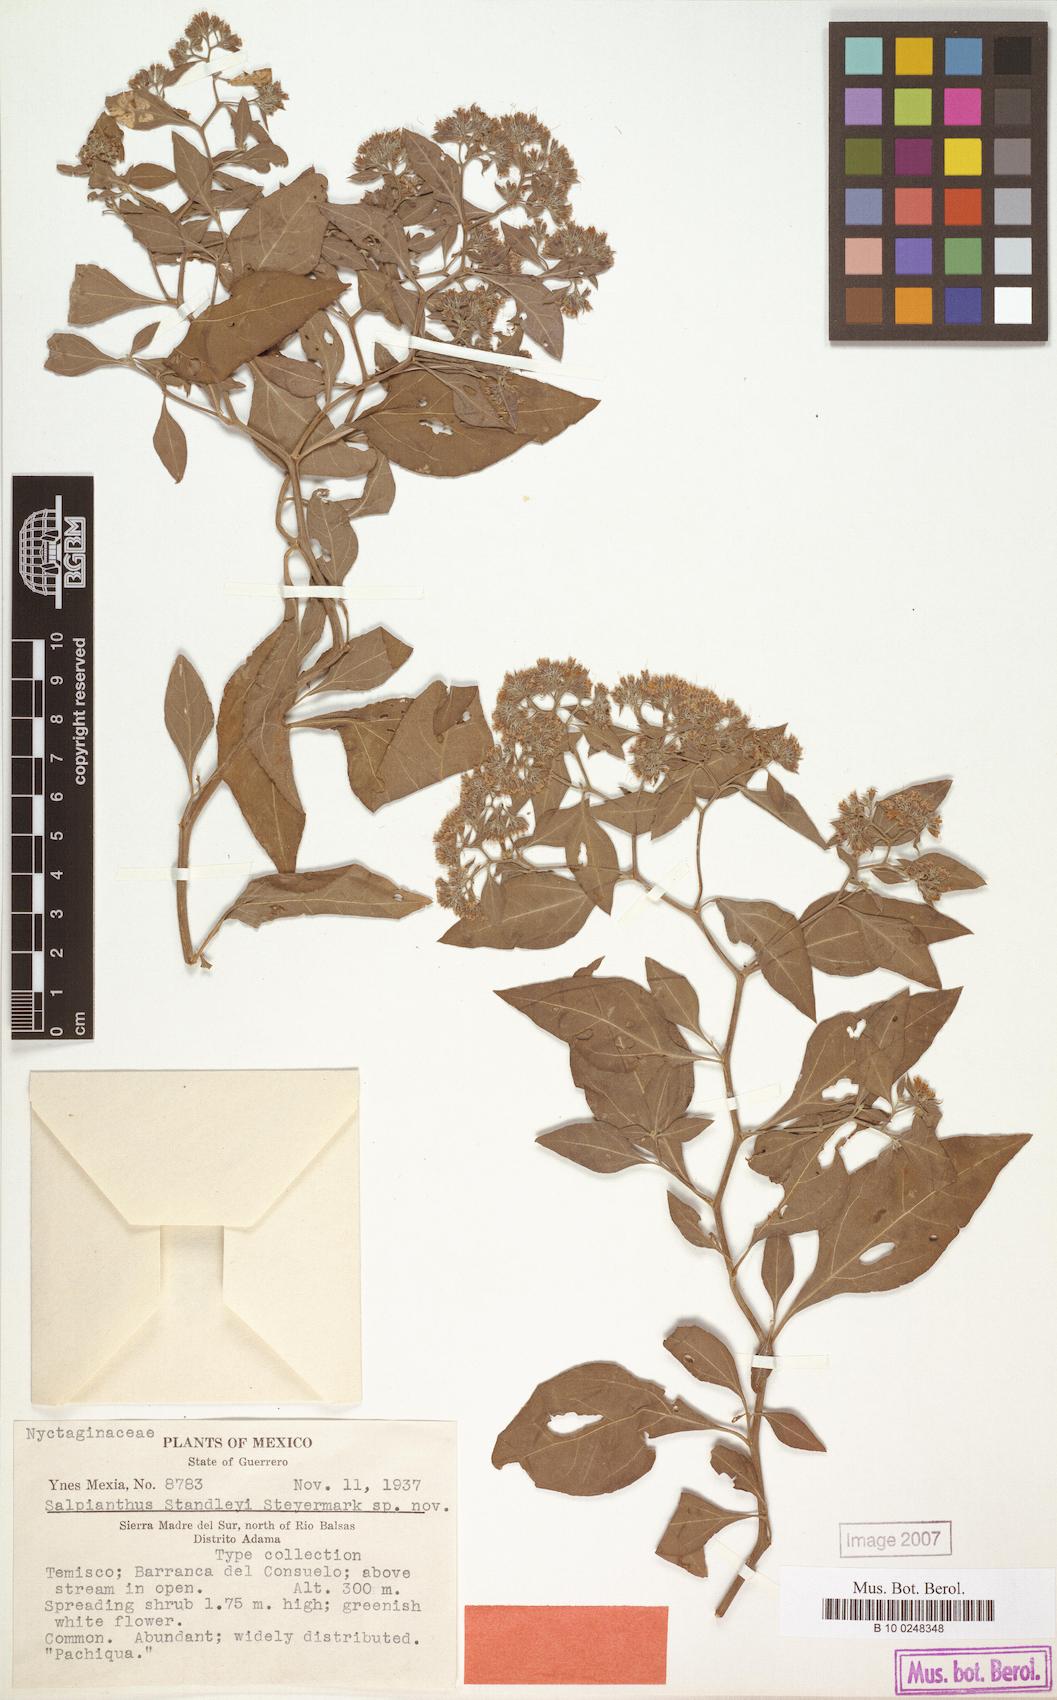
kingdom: Plantae
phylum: Tracheophyta
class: Magnoliopsida
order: Caryophyllales
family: Nyctaginaceae
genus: Salpianthus
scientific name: Salpianthus standleyi
